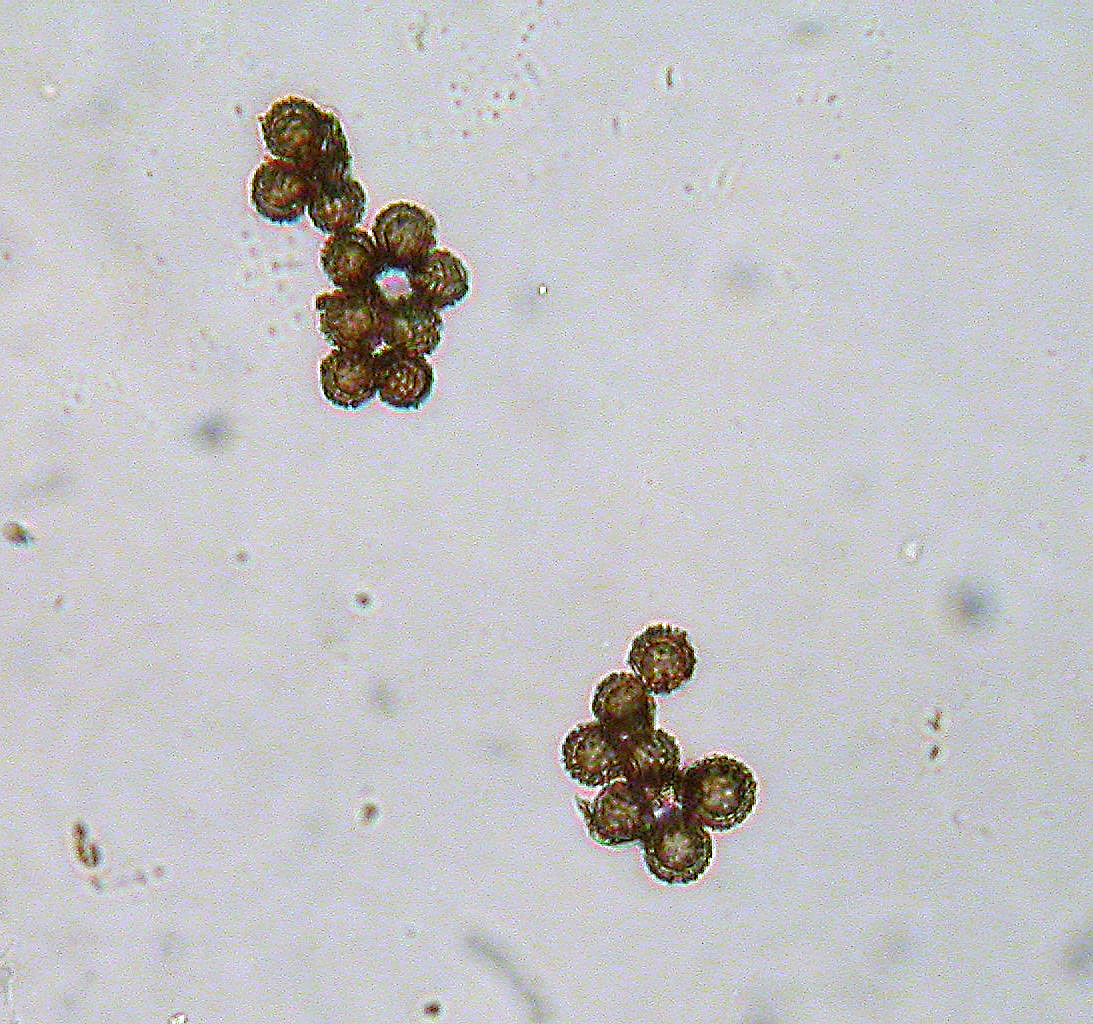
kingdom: Fungi
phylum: Basidiomycota
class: Agaricomycetes
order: Boletales
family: Diplocystidiaceae
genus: Astraeus
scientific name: Astraeus pteridis
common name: hygrometerstjerne
